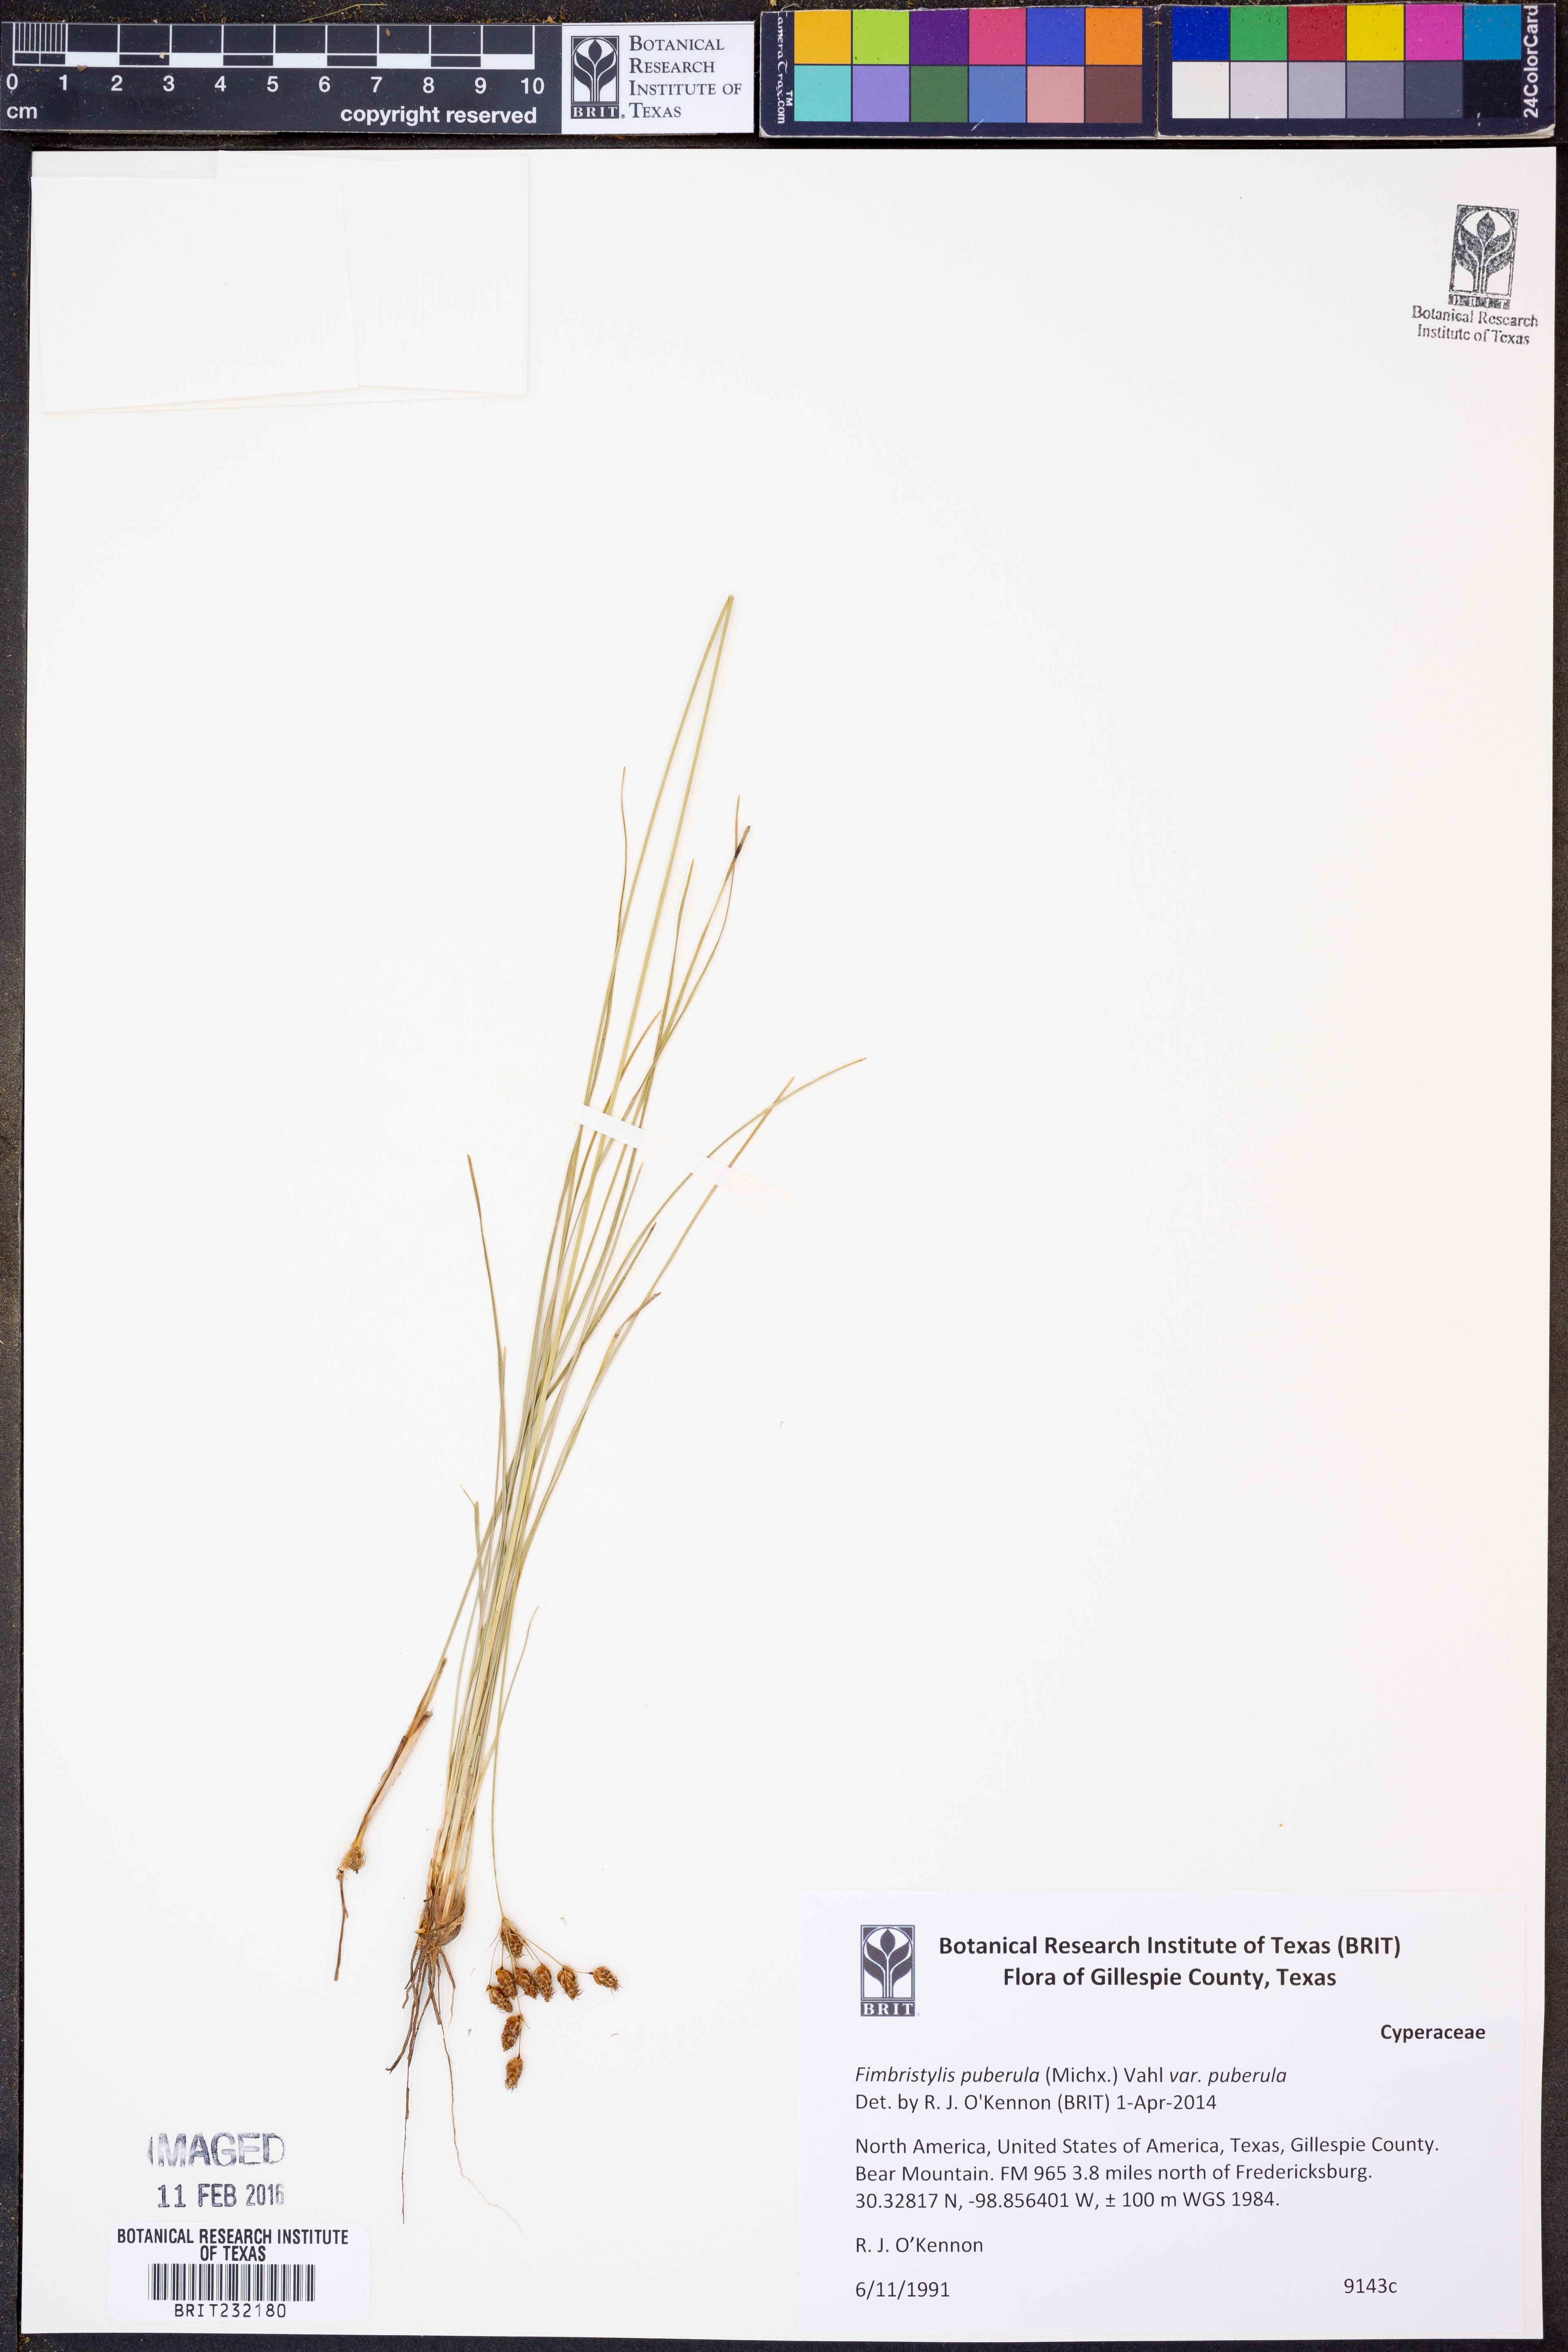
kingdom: Plantae
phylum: Tracheophyta
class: Liliopsida
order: Poales
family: Cyperaceae
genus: Fimbristylis
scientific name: Fimbristylis puberula
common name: Hairy fimbristylis
